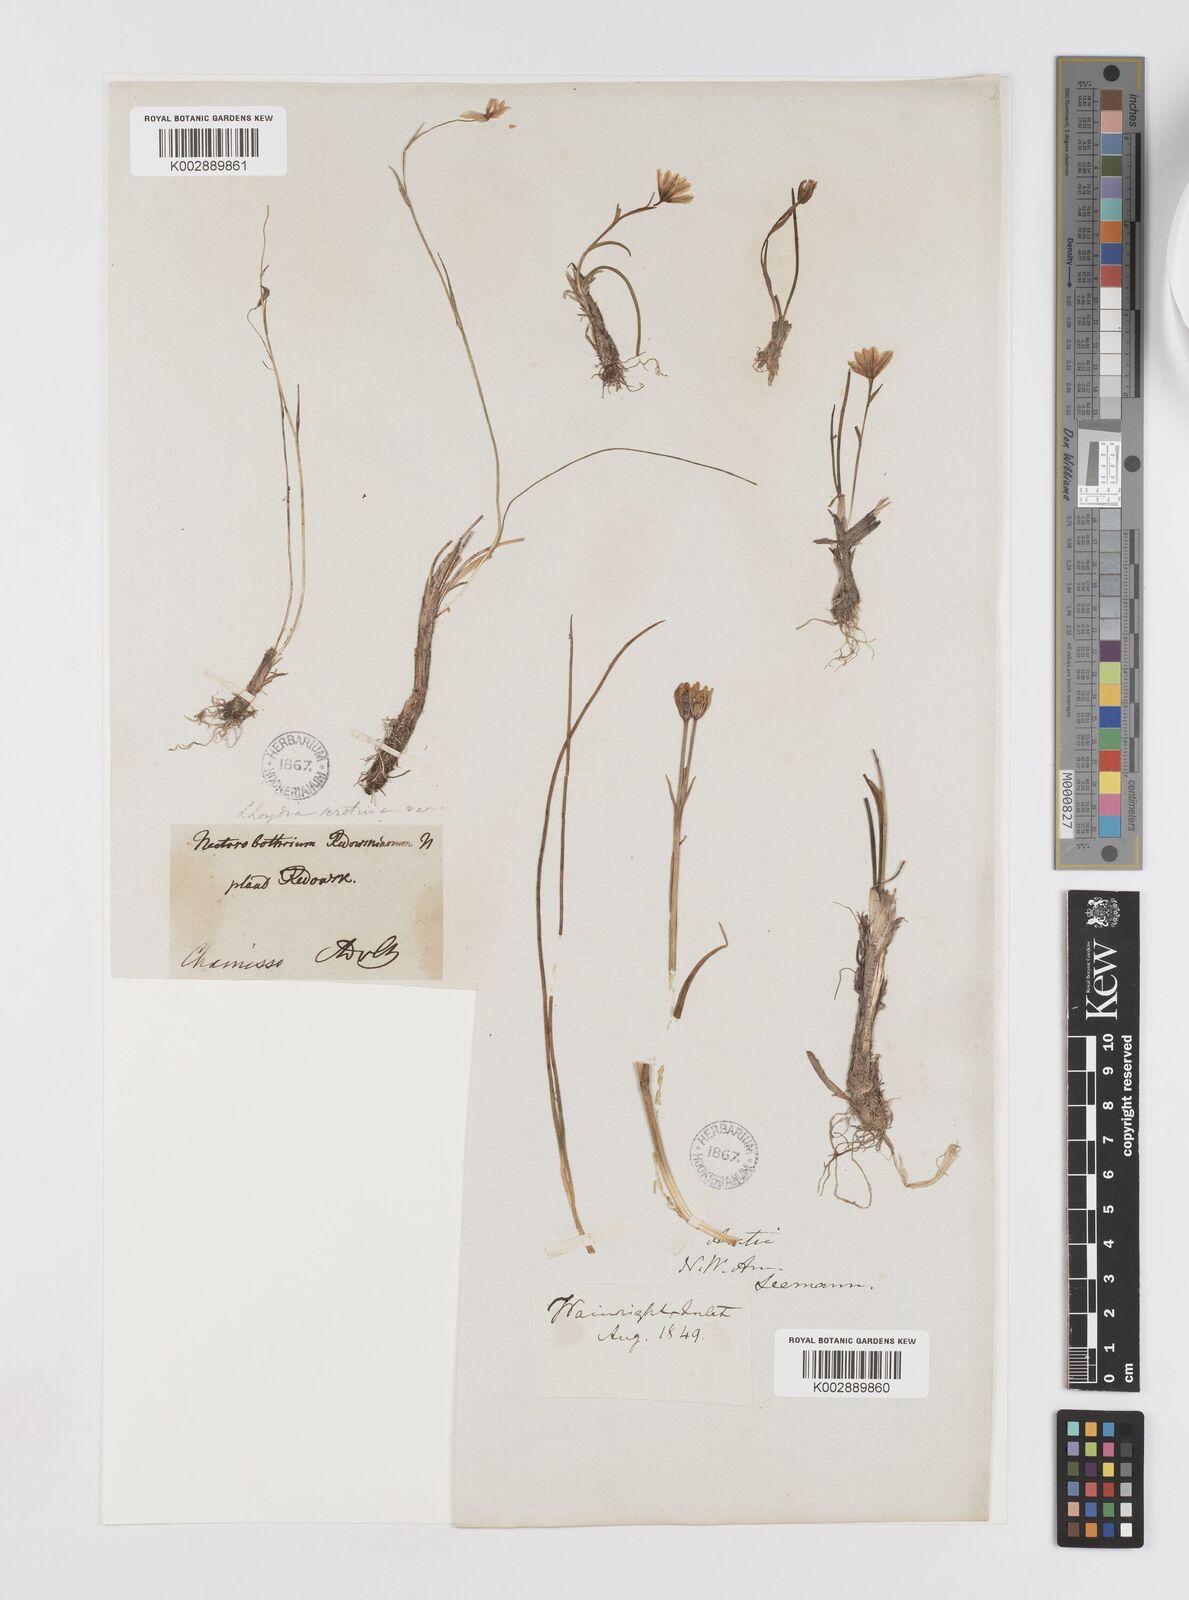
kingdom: Plantae
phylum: Tracheophyta
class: Liliopsida
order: Liliales
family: Liliaceae
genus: Gagea
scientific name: Gagea serotina
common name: Snowdon lily
